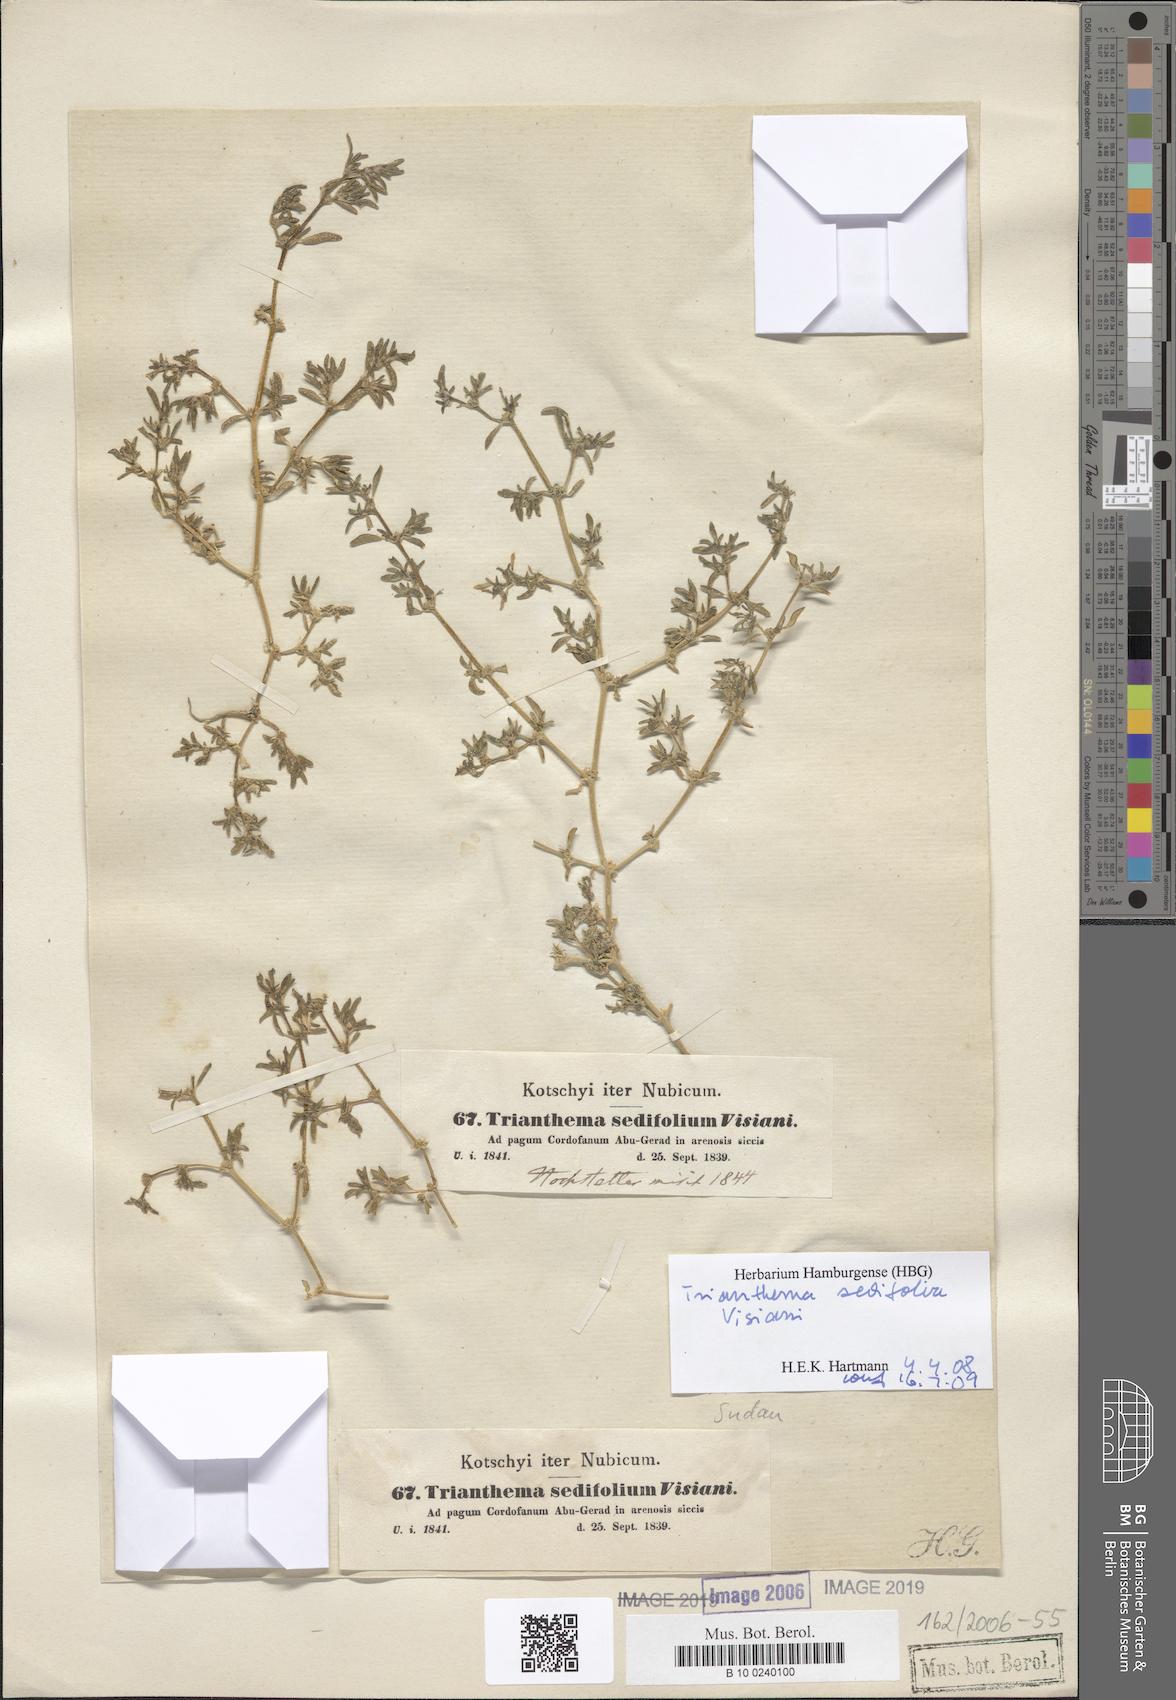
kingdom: Plantae
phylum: Tracheophyta
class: Magnoliopsida
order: Caryophyllales
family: Aizoaceae
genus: Trianthema
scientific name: Trianthema triquetrum
